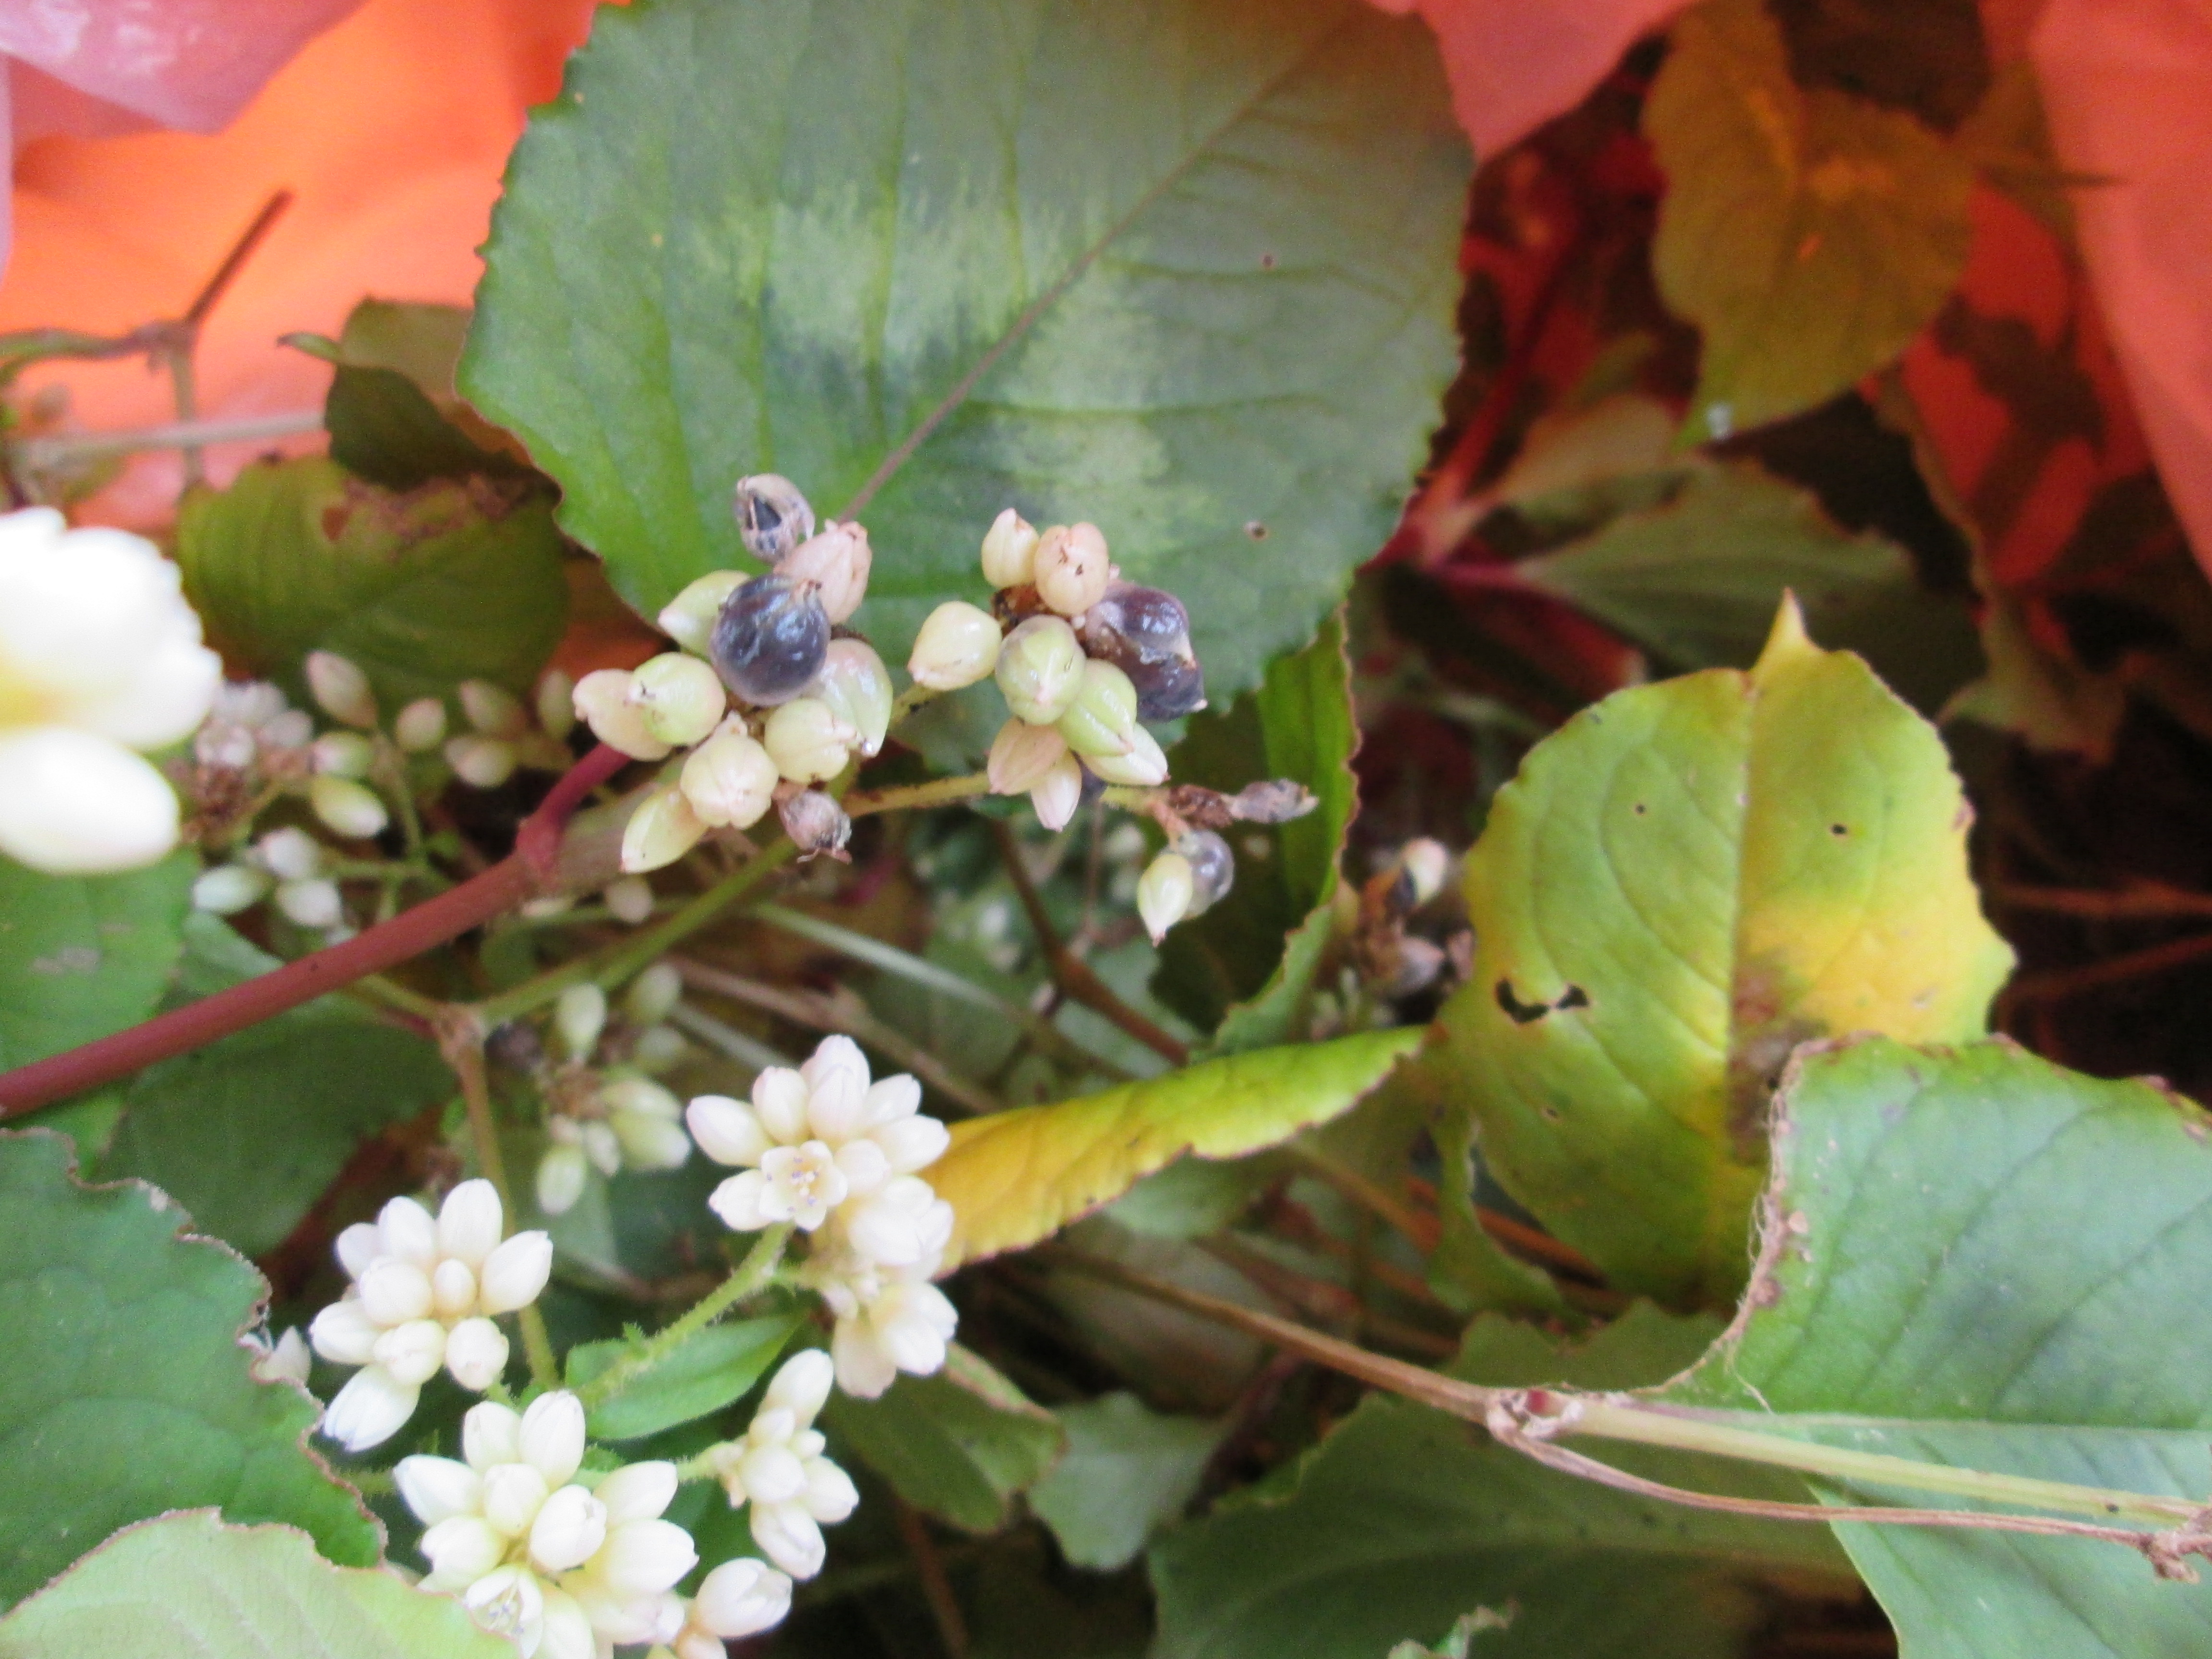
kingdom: Plantae
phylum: Tracheophyta
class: Magnoliopsida
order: Caryophyllales
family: Polygonaceae
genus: Persicaria
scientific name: Persicaria chinensis
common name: Chinese knotweed
